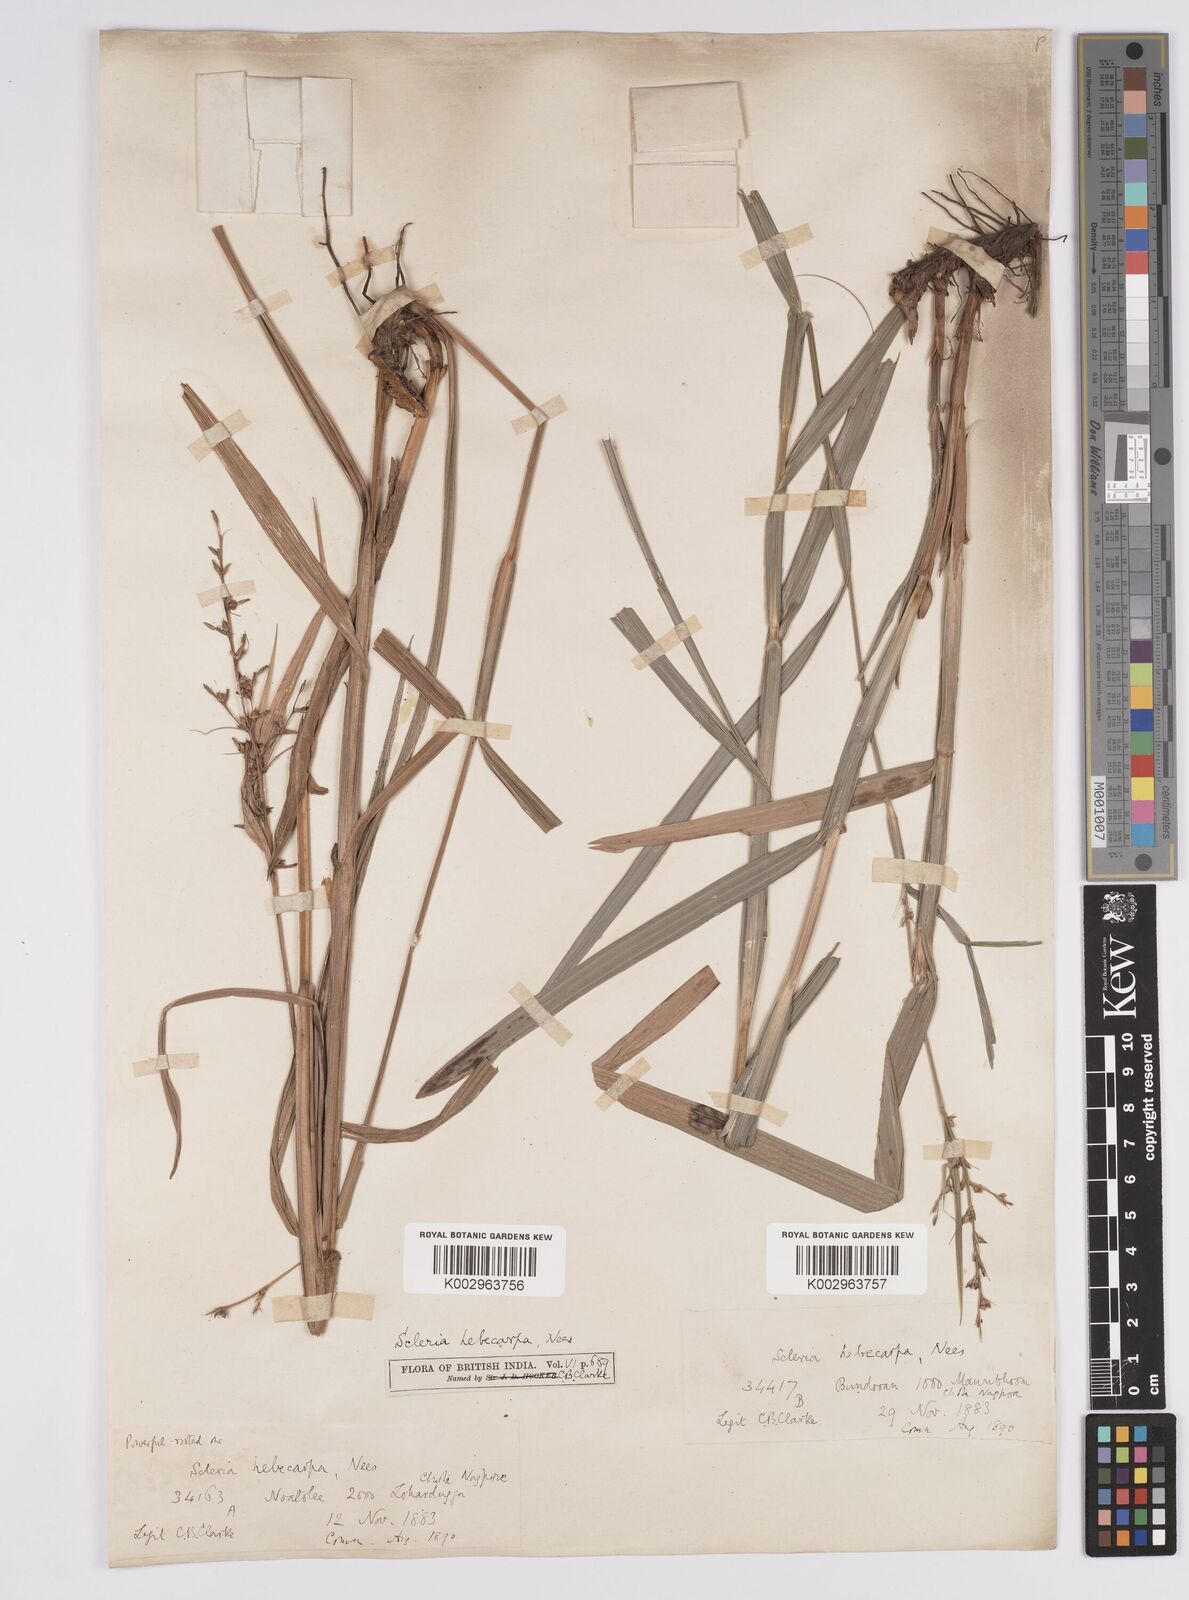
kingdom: Plantae
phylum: Tracheophyta
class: Liliopsida
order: Poales
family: Cyperaceae
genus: Scleria
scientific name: Scleria levis
